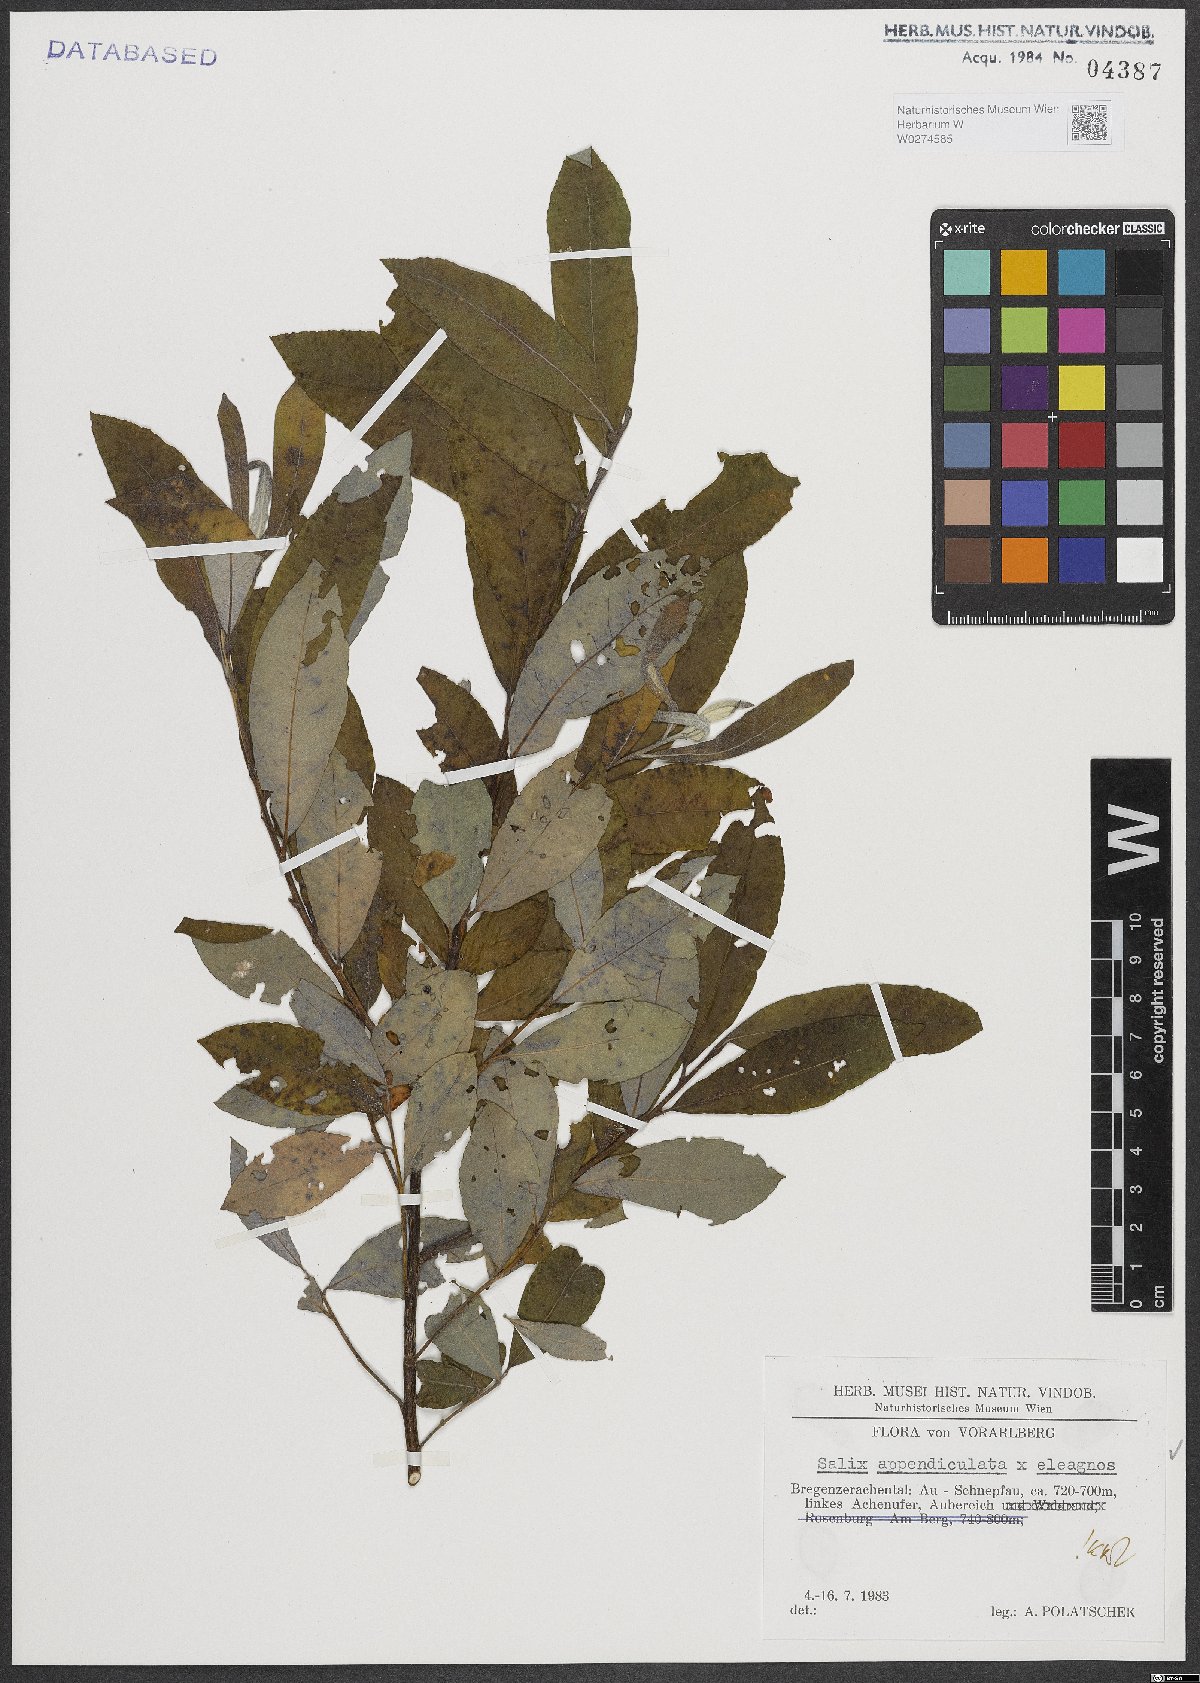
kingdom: Plantae
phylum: Tracheophyta
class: Magnoliopsida
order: Malpighiales
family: Salicaceae
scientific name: Salicaceae
